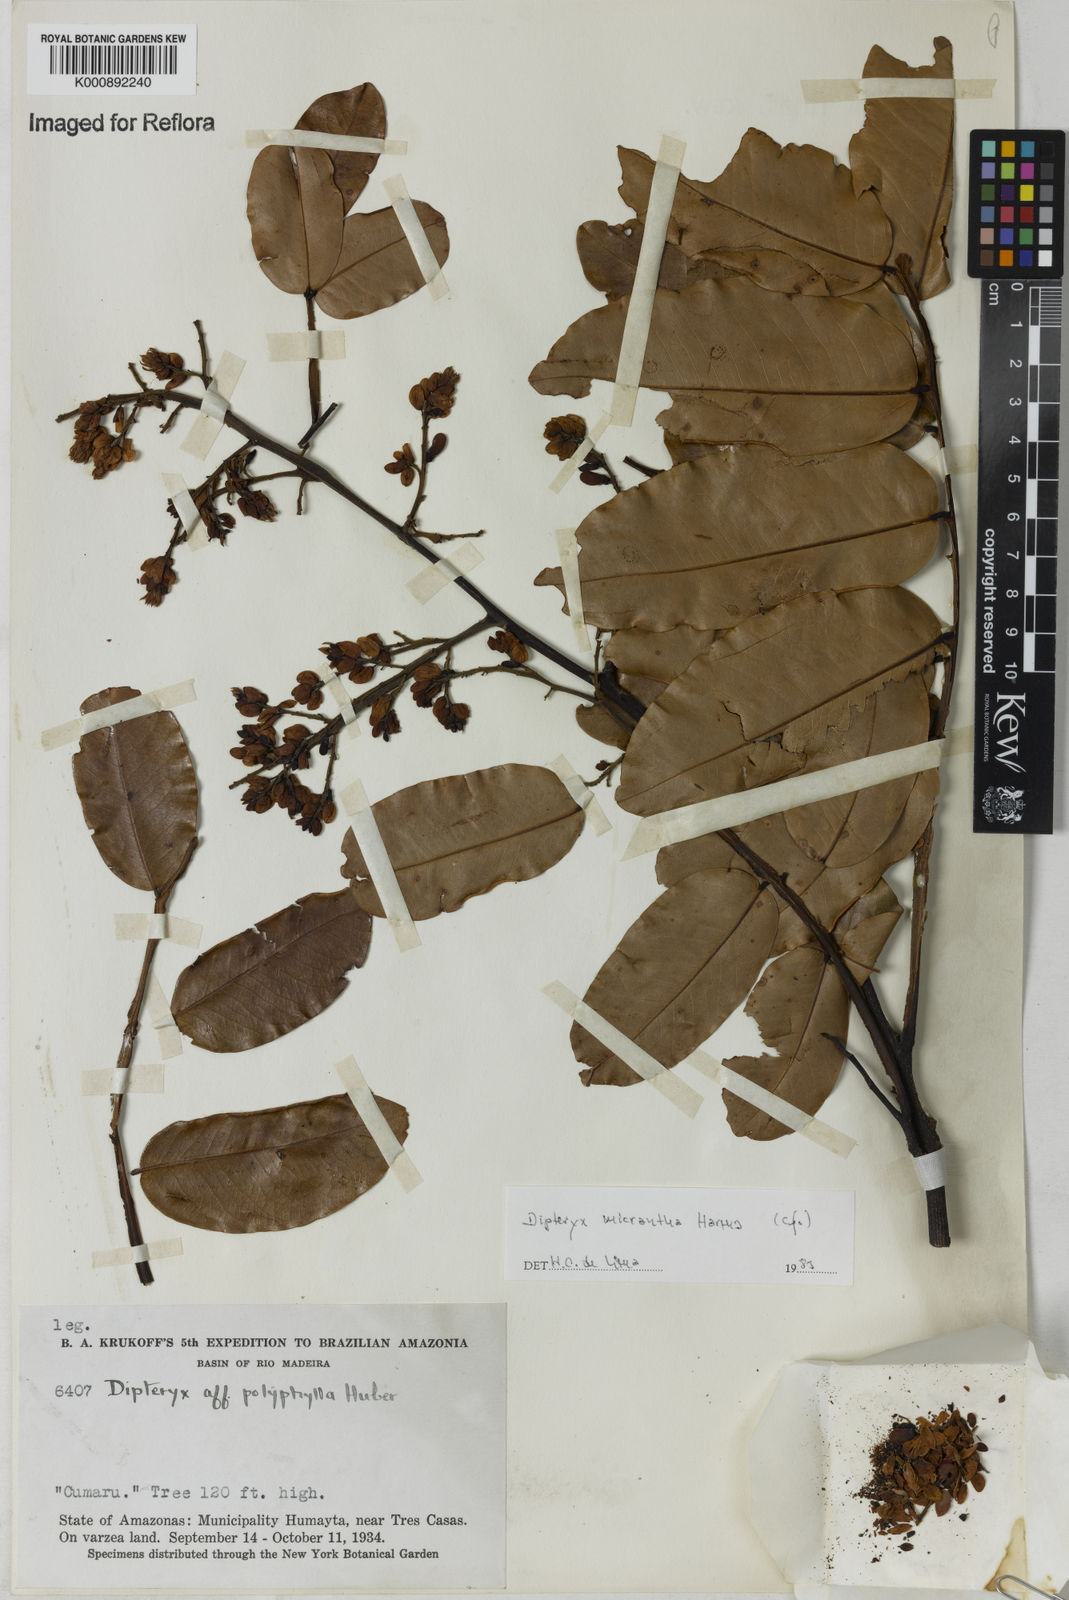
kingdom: Plantae
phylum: Tracheophyta
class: Magnoliopsida
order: Fabales
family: Fabaceae
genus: Dipteryx
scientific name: Dipteryx micrantha
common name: Brazilian teak
